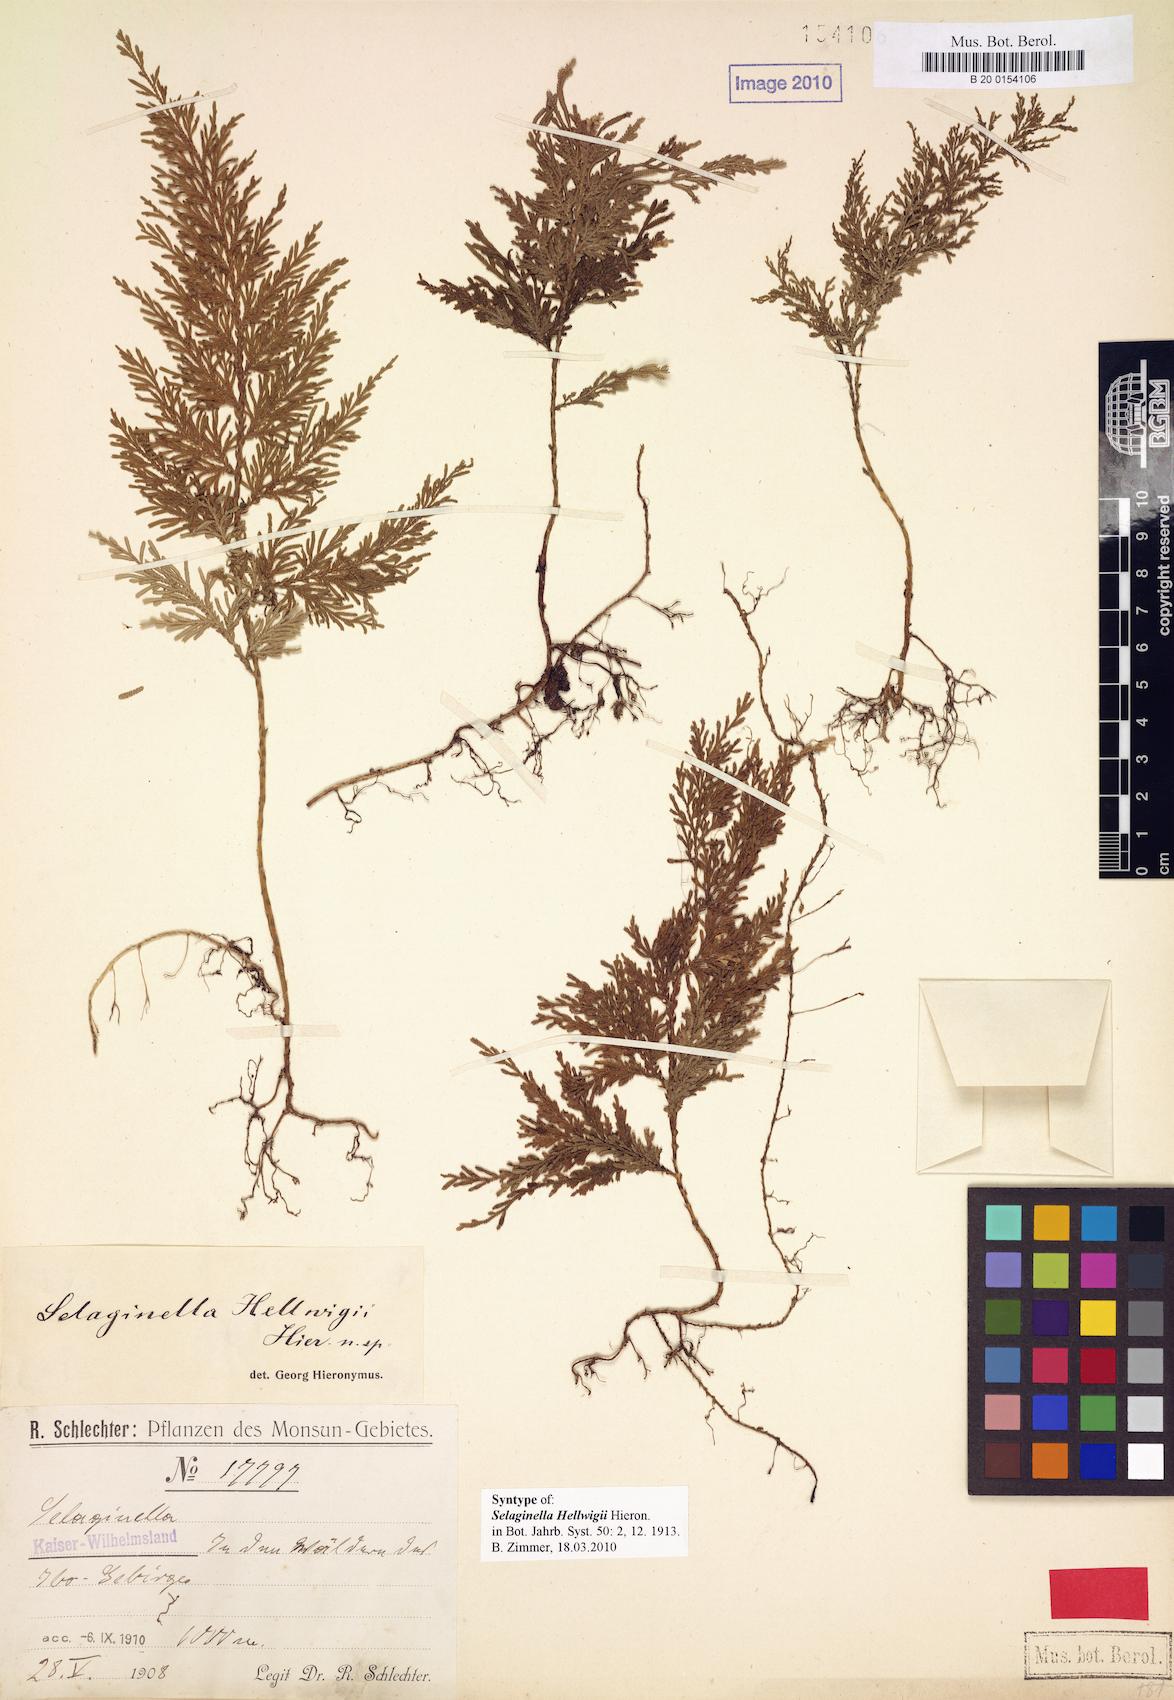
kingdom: Plantae
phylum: Tracheophyta
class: Lycopodiopsida
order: Selaginellales
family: Selaginellaceae
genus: Selaginella
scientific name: Selaginella hellwigii
